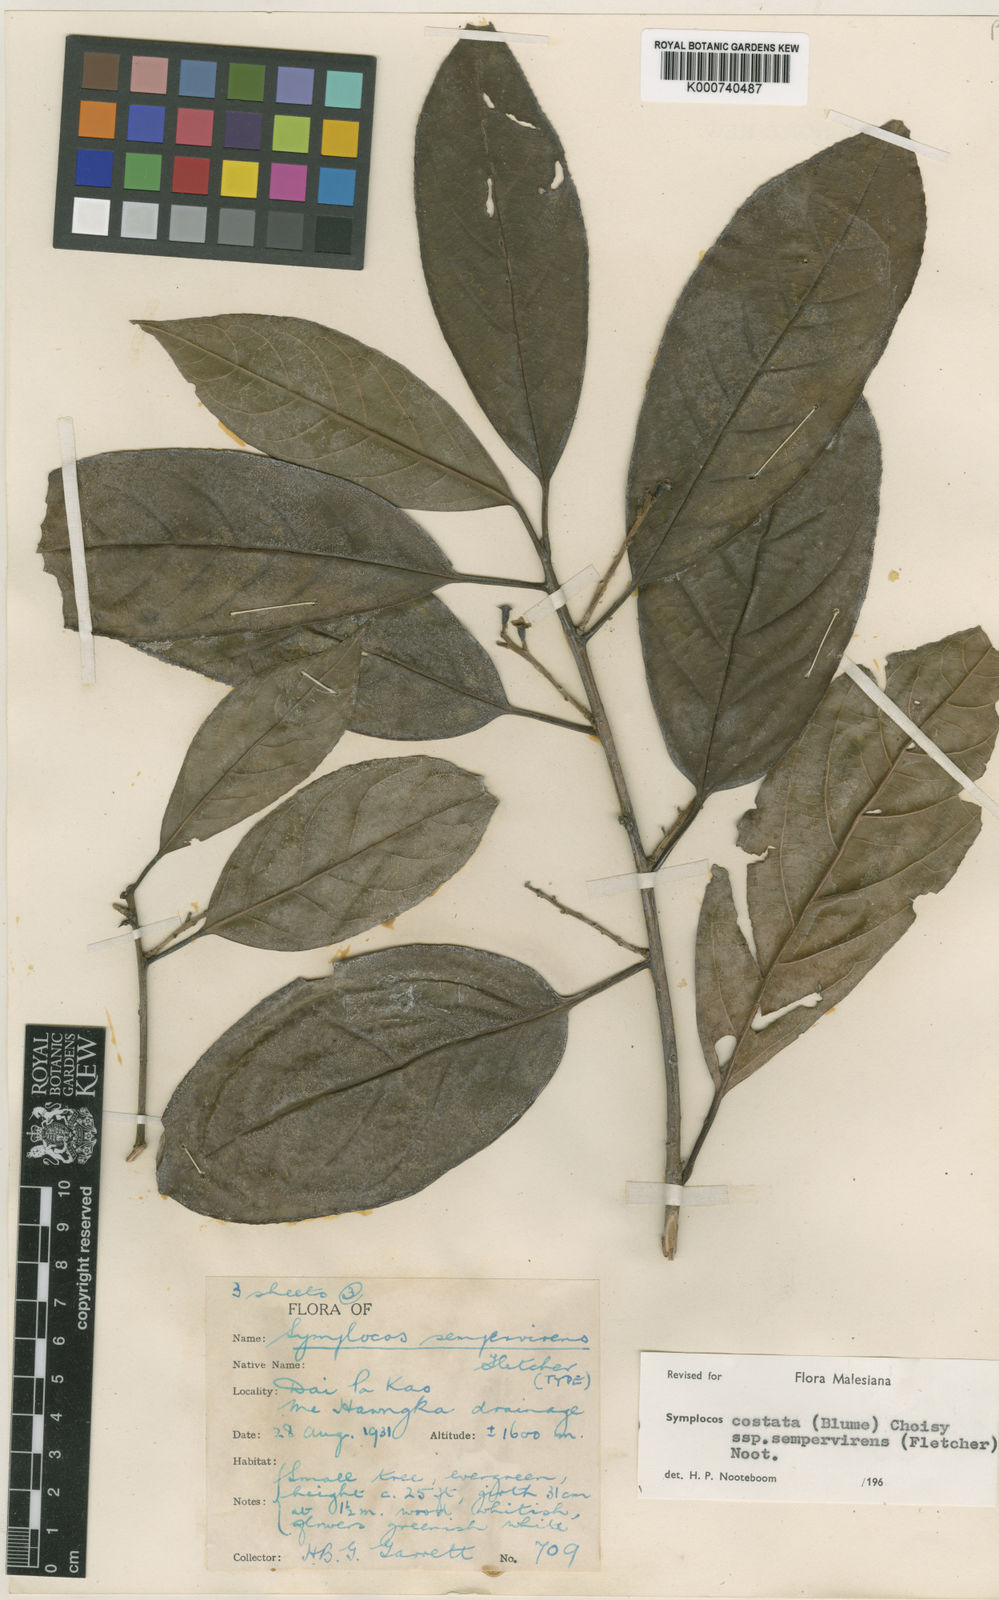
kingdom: Plantae
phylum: Tracheophyta
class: Magnoliopsida
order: Ericales
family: Symplocaceae
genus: Symplocos
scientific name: Symplocos costata
